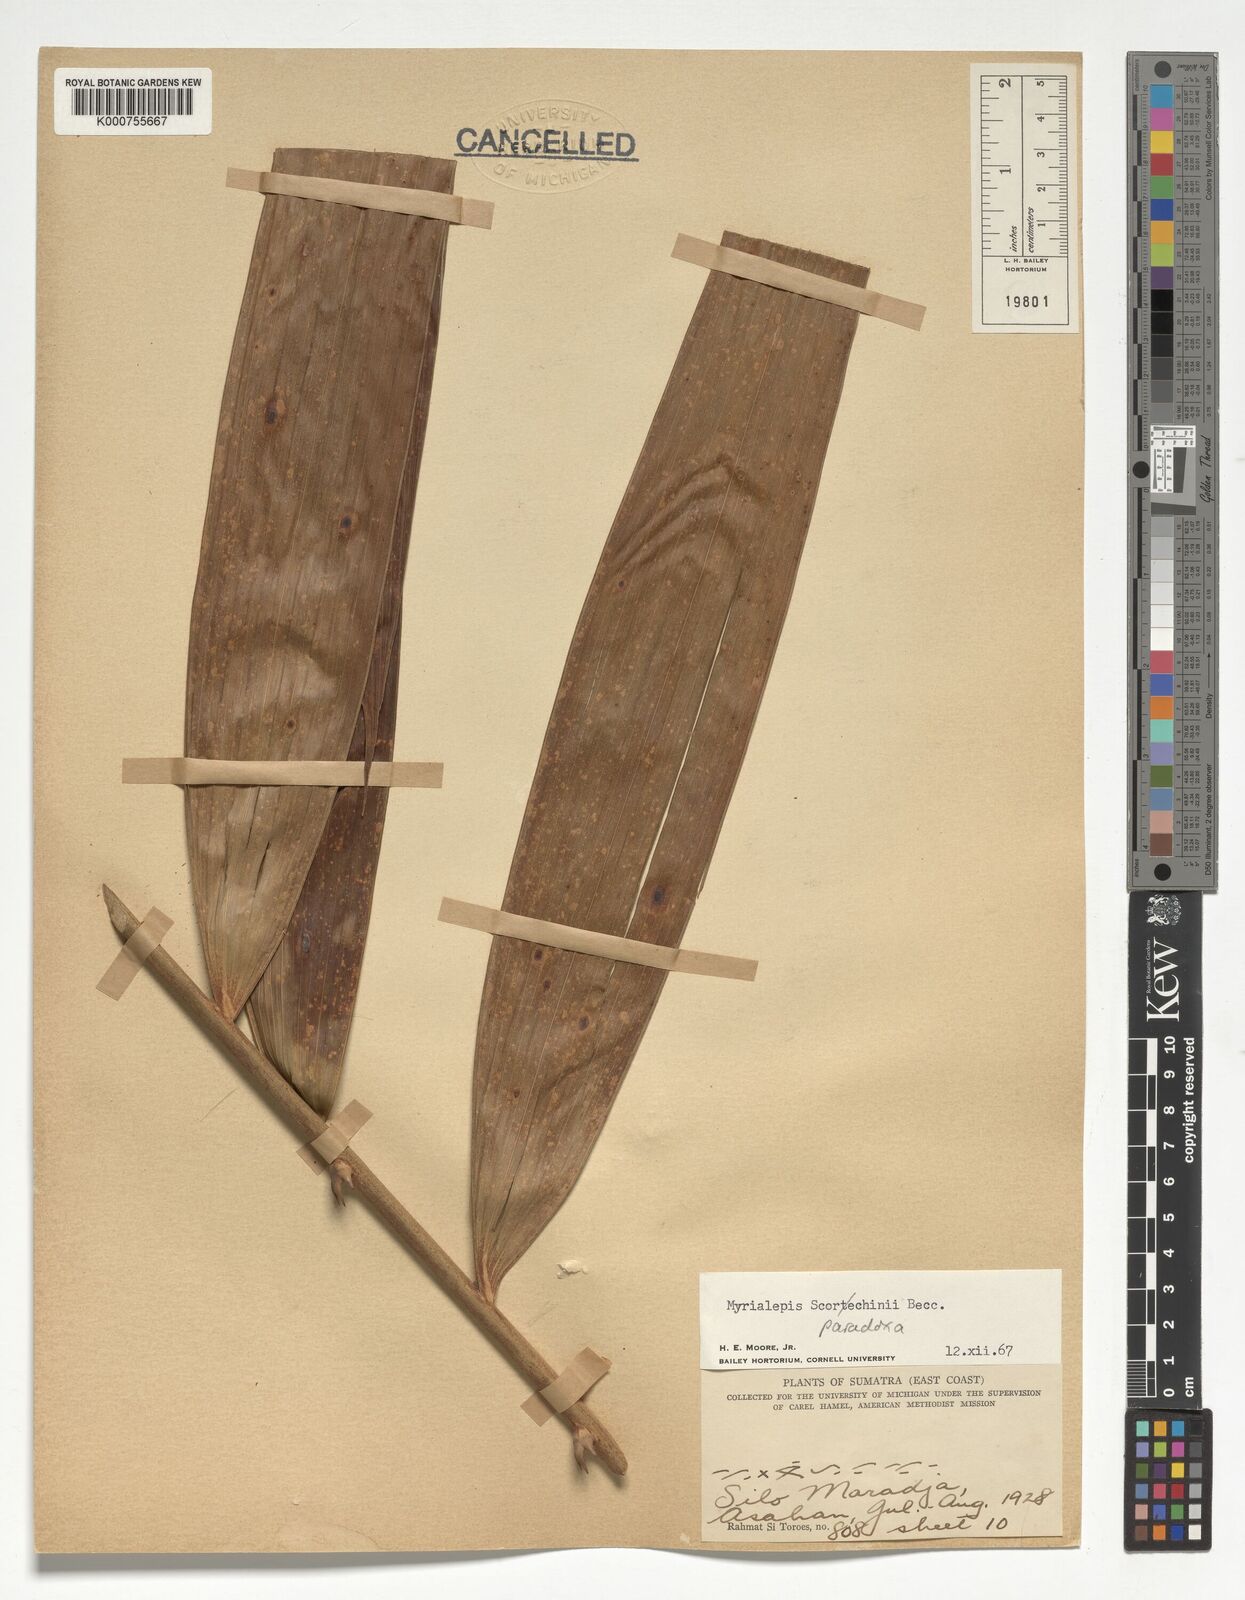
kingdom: Plantae
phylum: Tracheophyta
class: Liliopsida
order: Arecales
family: Arecaceae
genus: Myrialepis
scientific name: Myrialepis paradoxa
